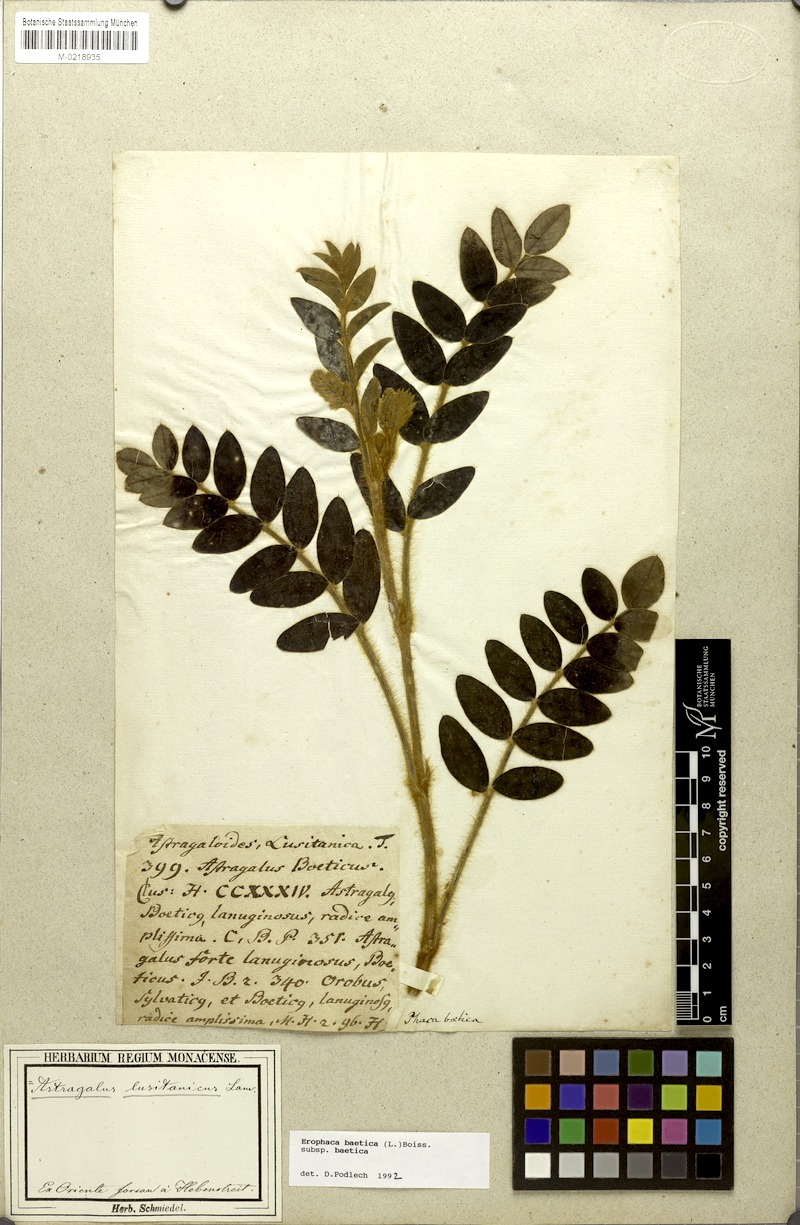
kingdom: Plantae
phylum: Tracheophyta
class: Magnoliopsida
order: Fabales
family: Fabaceae
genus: Erophaca
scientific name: Erophaca baetica
